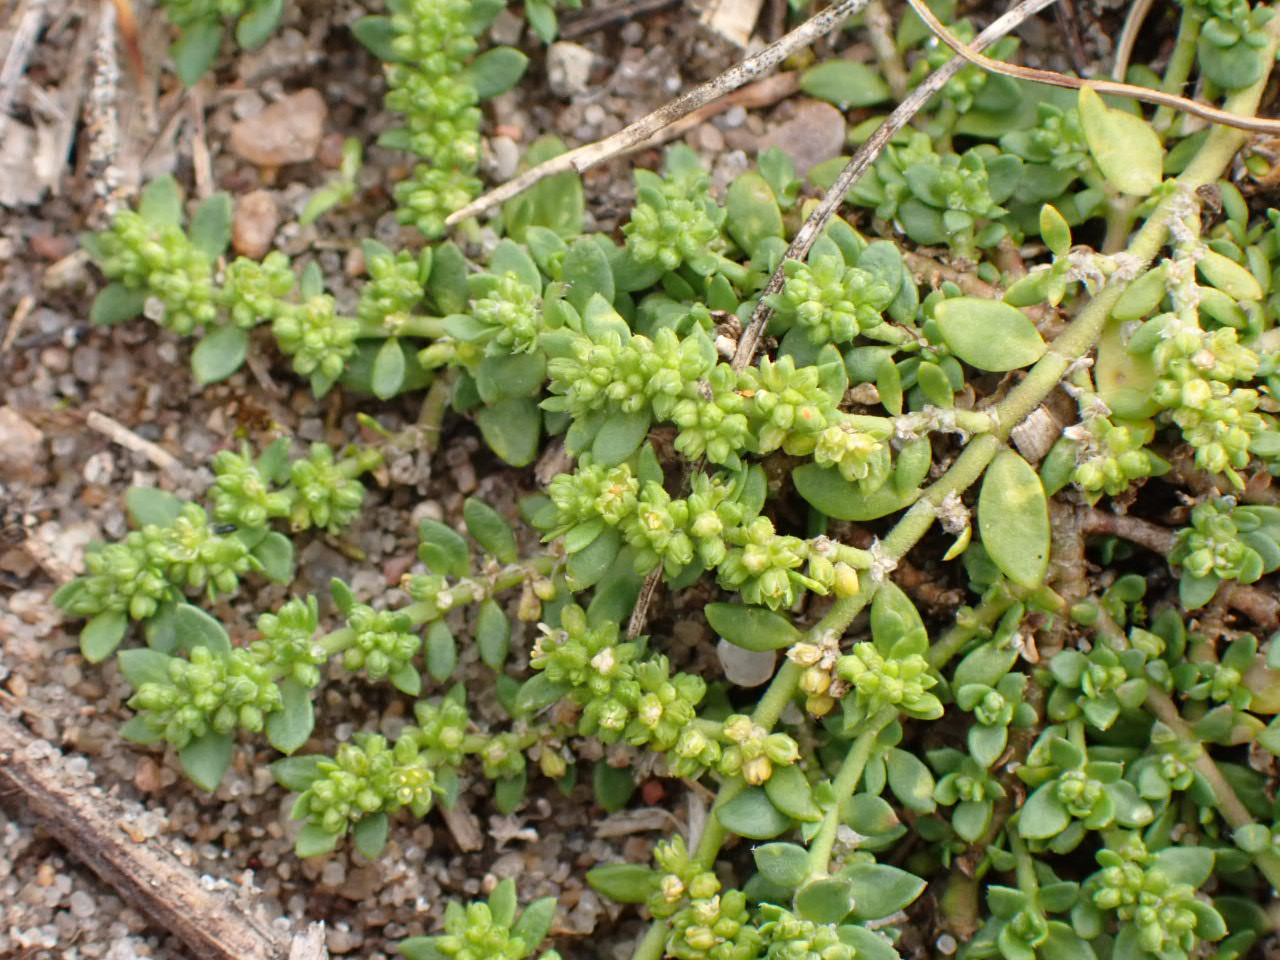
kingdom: Plantae
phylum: Tracheophyta
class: Magnoliopsida
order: Caryophyllales
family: Caryophyllaceae
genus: Herniaria
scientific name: Herniaria glabra
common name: Brudurt
